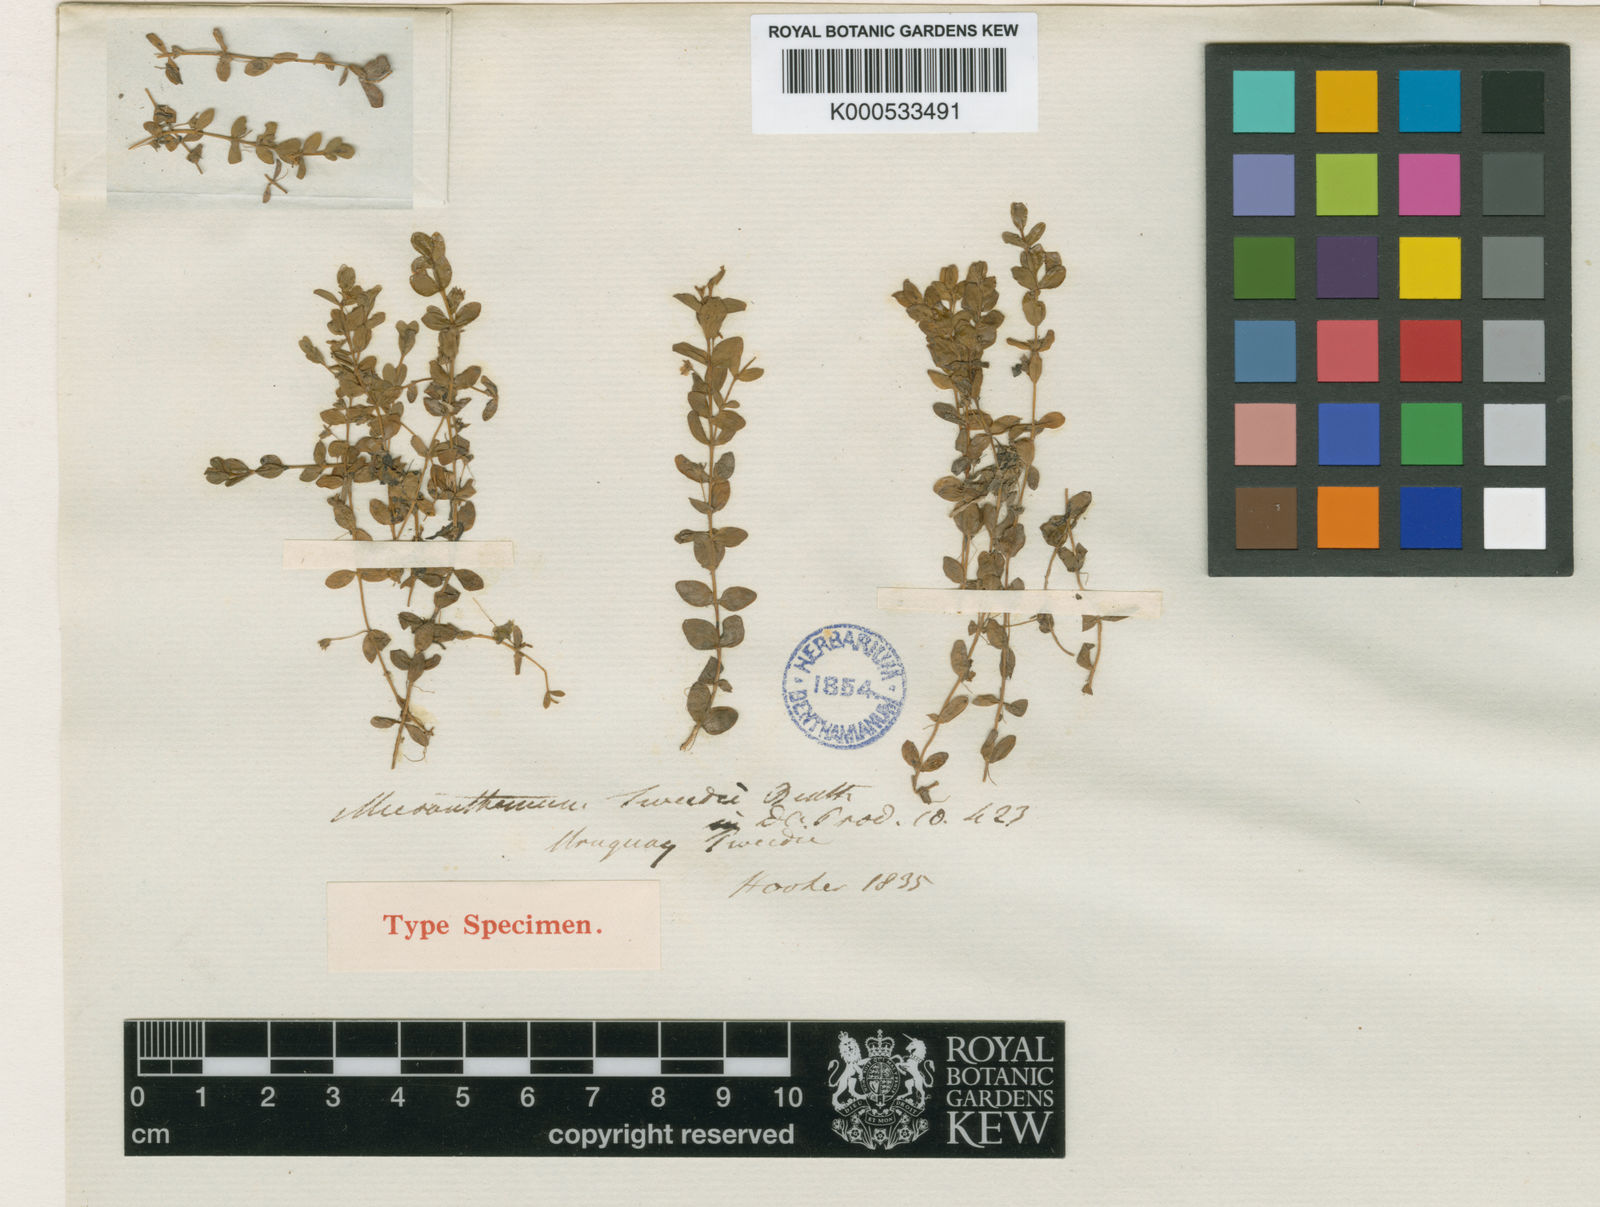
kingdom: Plantae
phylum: Tracheophyta
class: Magnoliopsida
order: Lamiales
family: Linderniaceae
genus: Micranthemum
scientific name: Micranthemum tweedei
